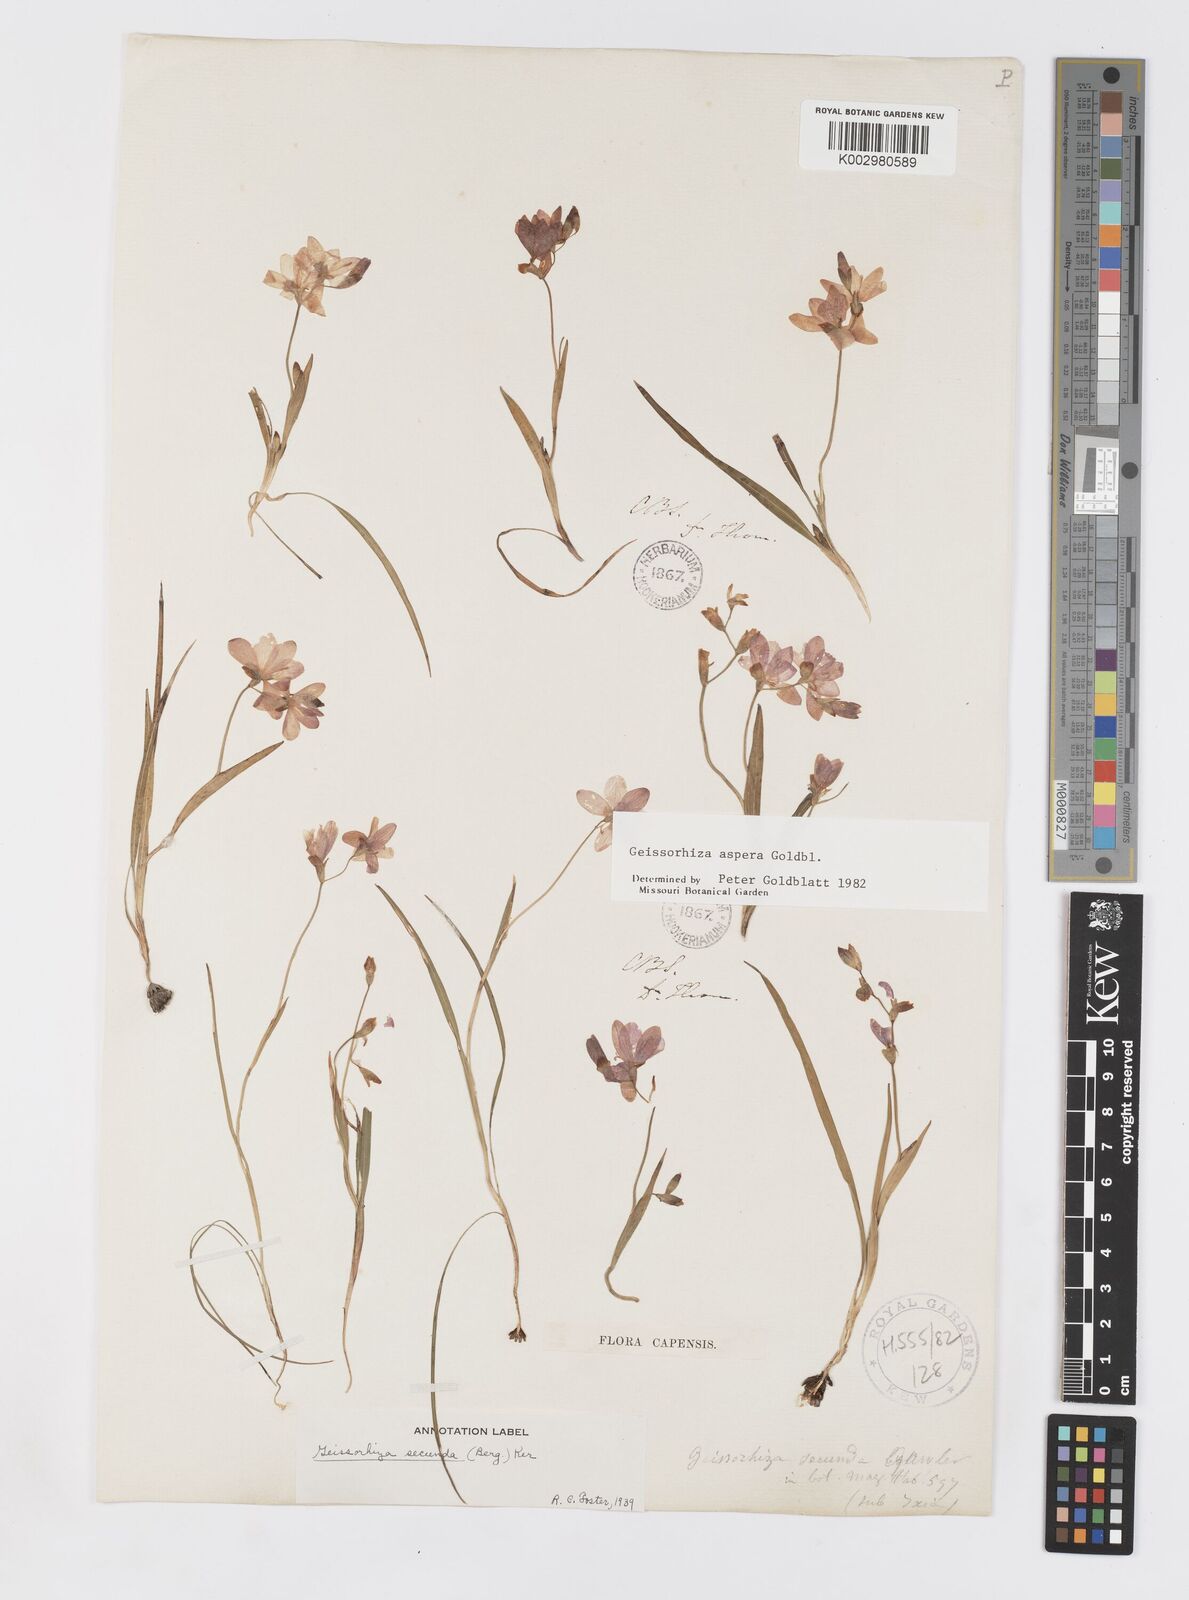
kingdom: Plantae
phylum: Tracheophyta
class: Liliopsida
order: Asparagales
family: Iridaceae
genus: Geissorhiza
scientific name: Geissorhiza aspera
